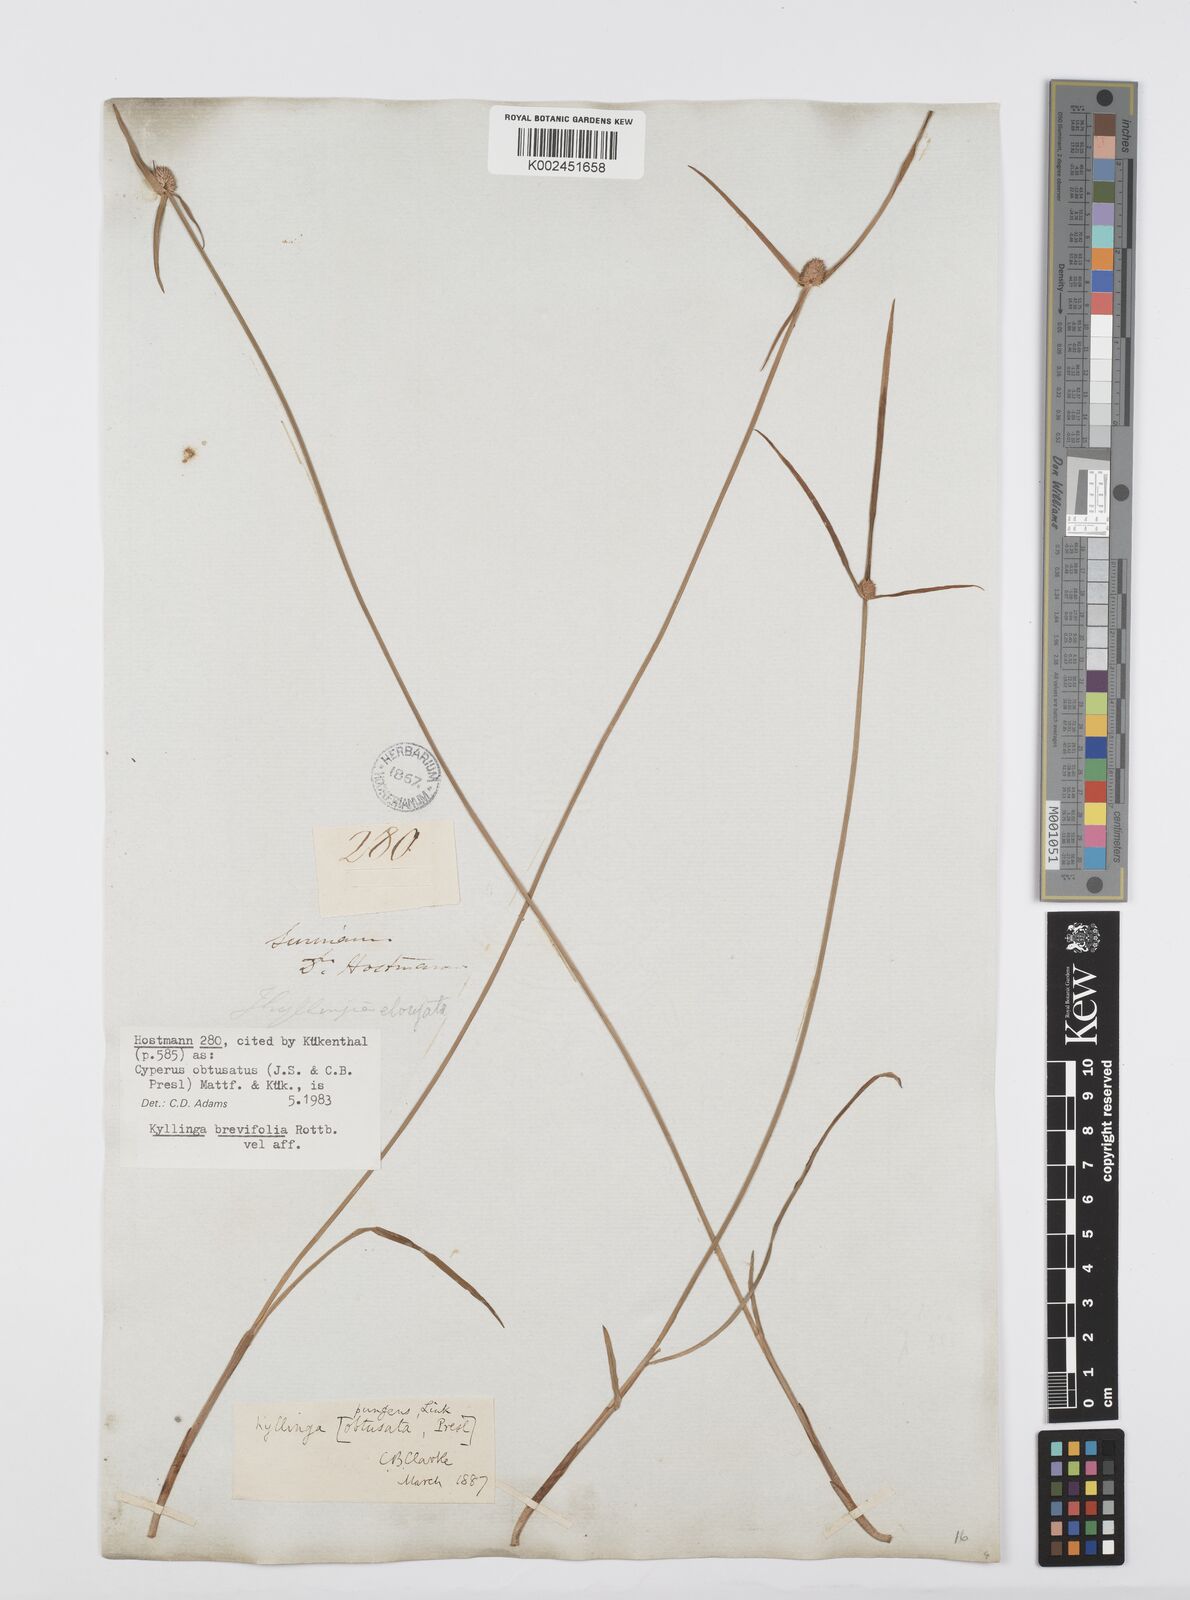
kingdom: Plantae
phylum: Tracheophyta
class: Liliopsida
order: Poales
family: Cyperaceae
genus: Cyperus
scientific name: Cyperus obtusatus
